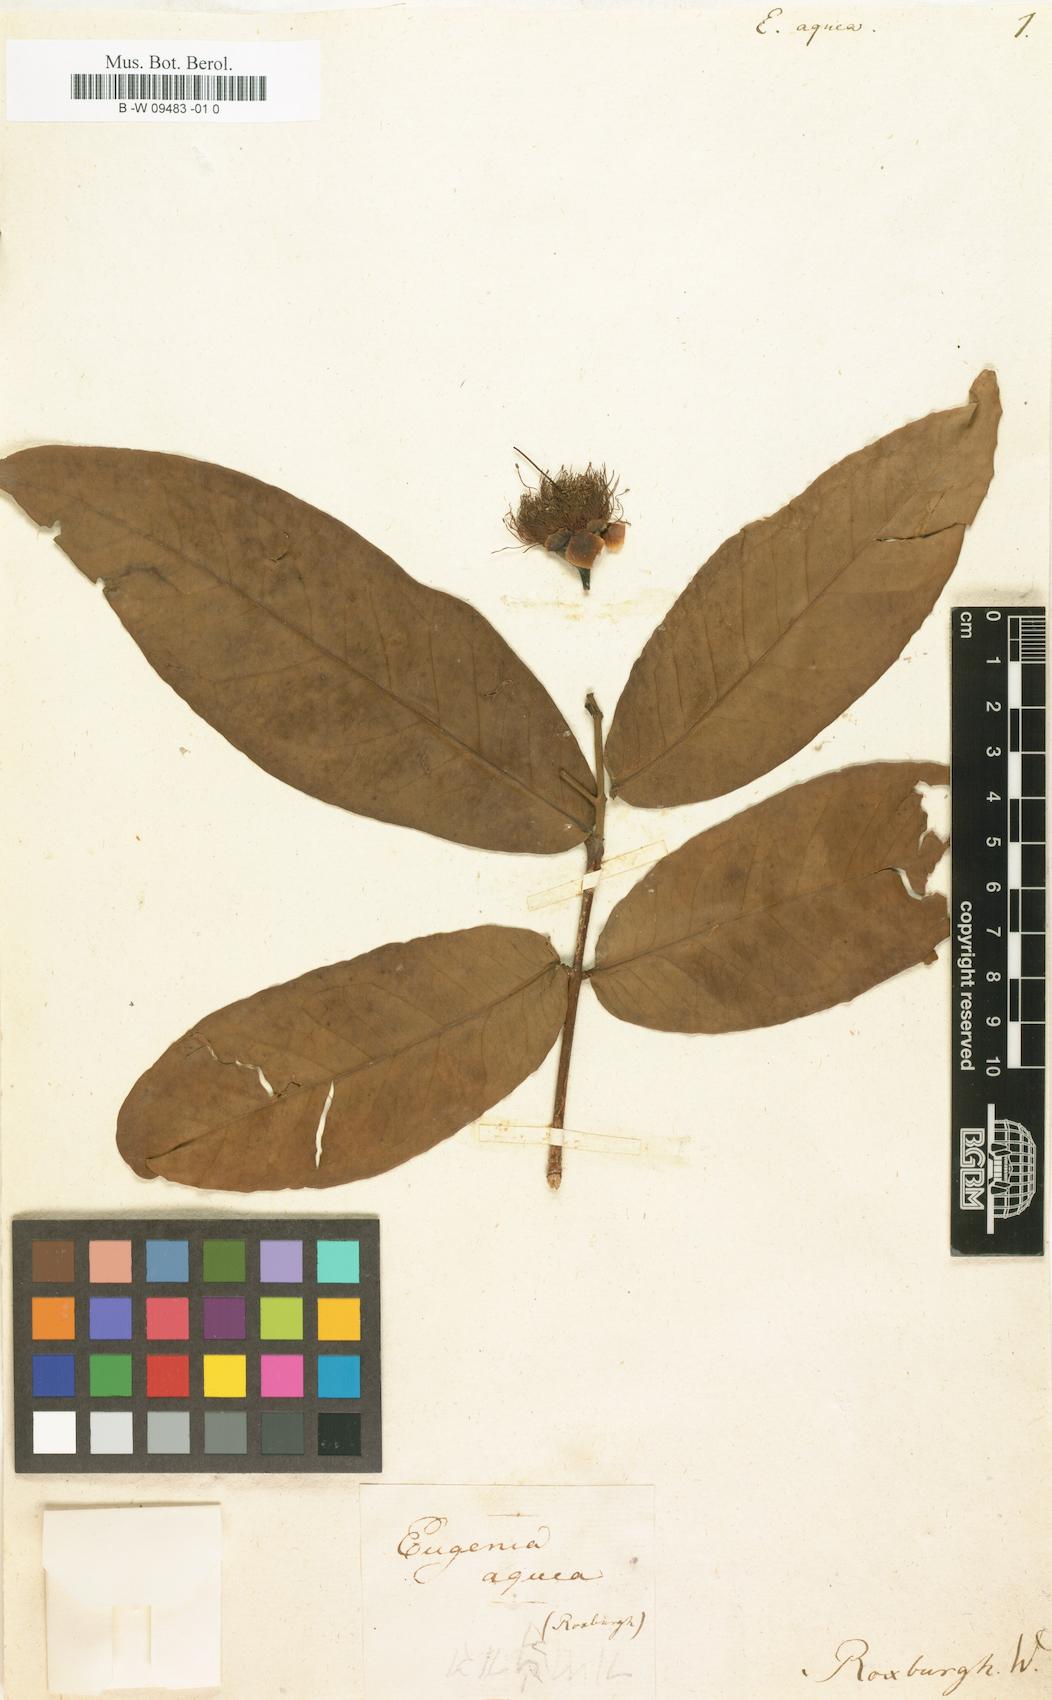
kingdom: Plantae
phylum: Tracheophyta
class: Magnoliopsida
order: Myrtales
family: Myrtaceae
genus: Syzygium
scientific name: Syzygium aqueum
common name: Water-apple
